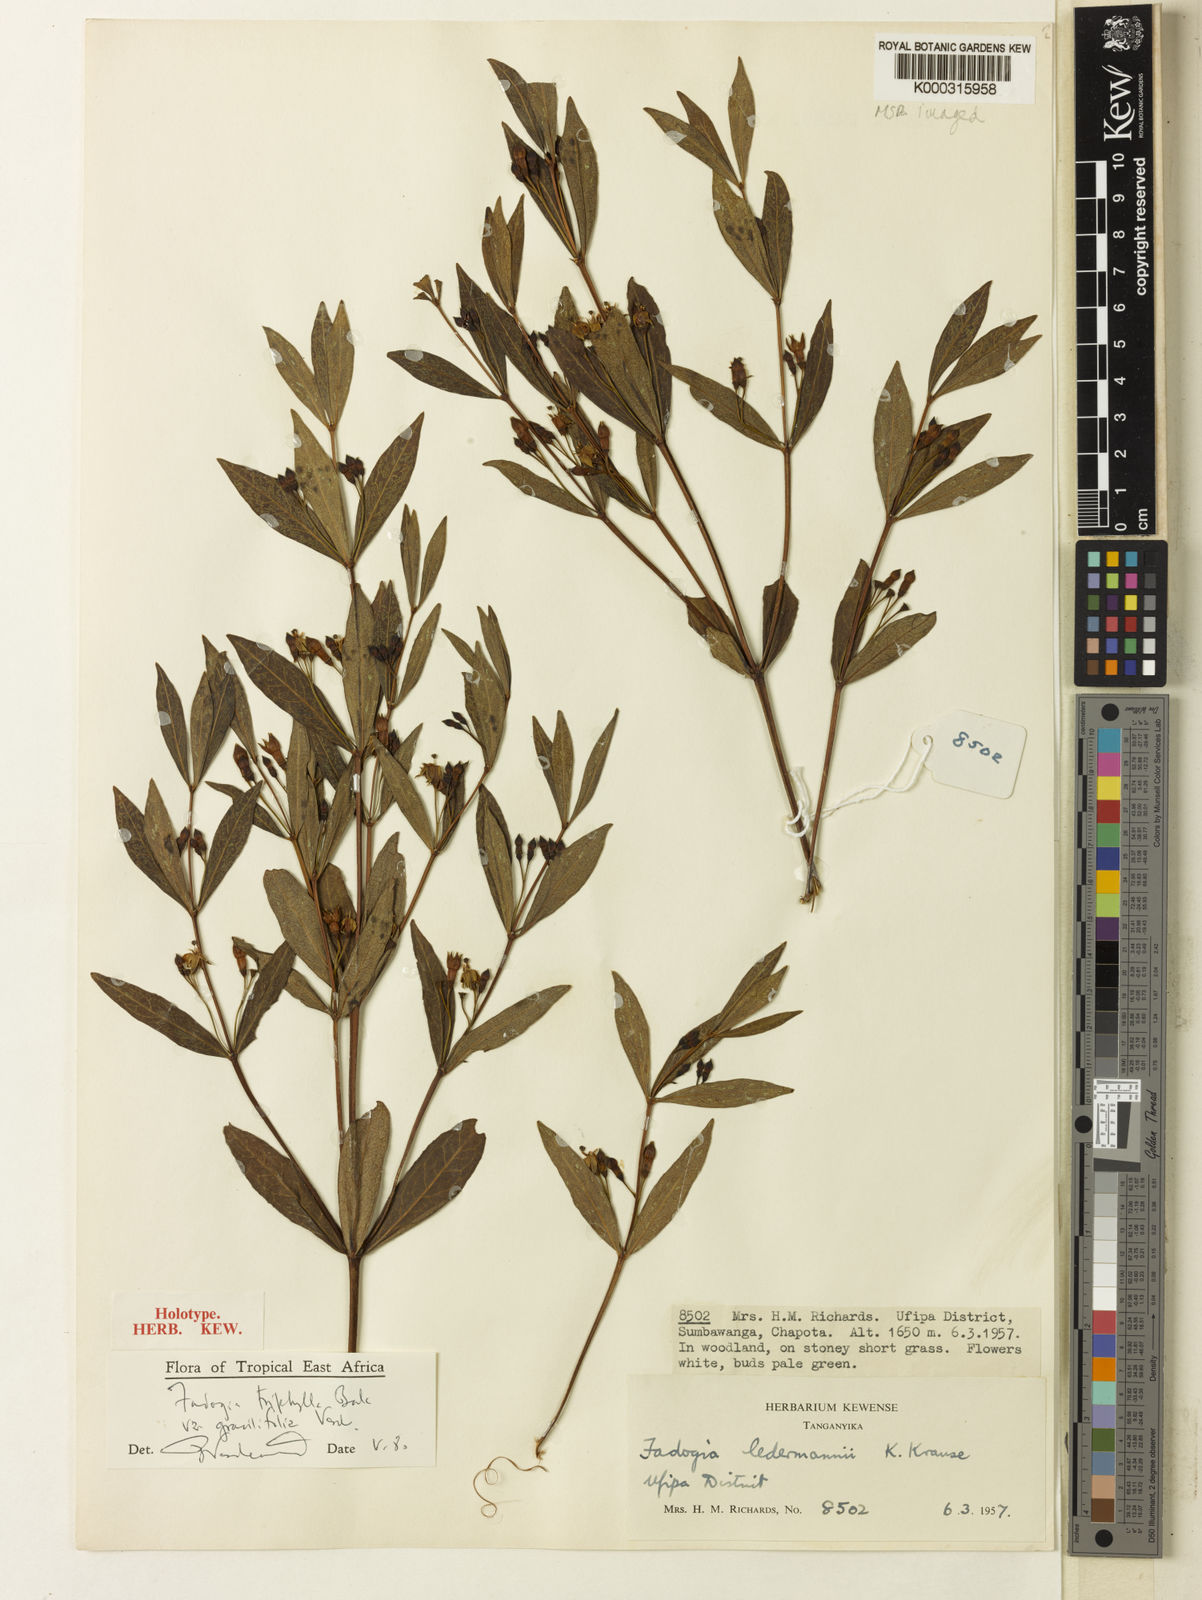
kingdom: Plantae
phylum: Tracheophyta
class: Magnoliopsida
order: Gentianales
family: Rubiaceae
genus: Fadogia
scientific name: Fadogia triphylla
